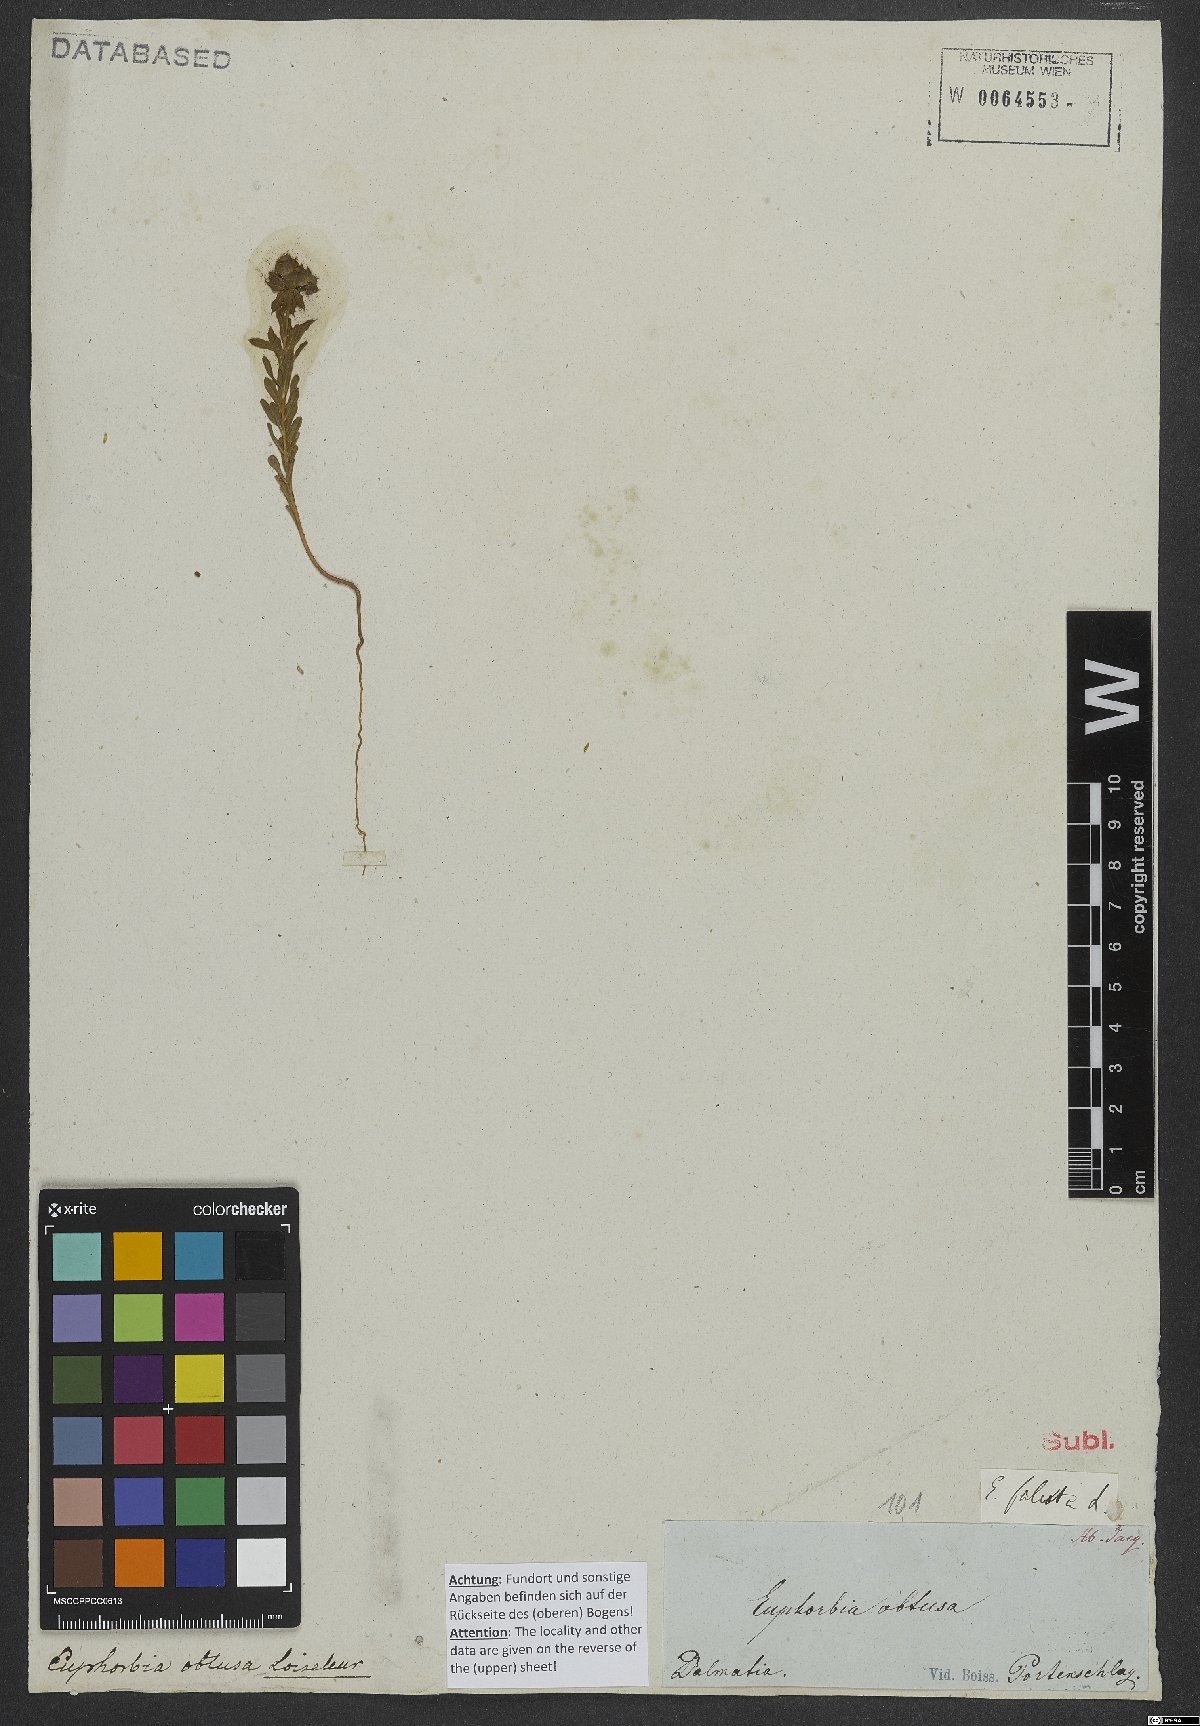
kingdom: Plantae
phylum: Tracheophyta
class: Magnoliopsida
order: Malpighiales
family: Euphorbiaceae
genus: Euphorbia
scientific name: Euphorbia falcata
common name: Sickle spurge
